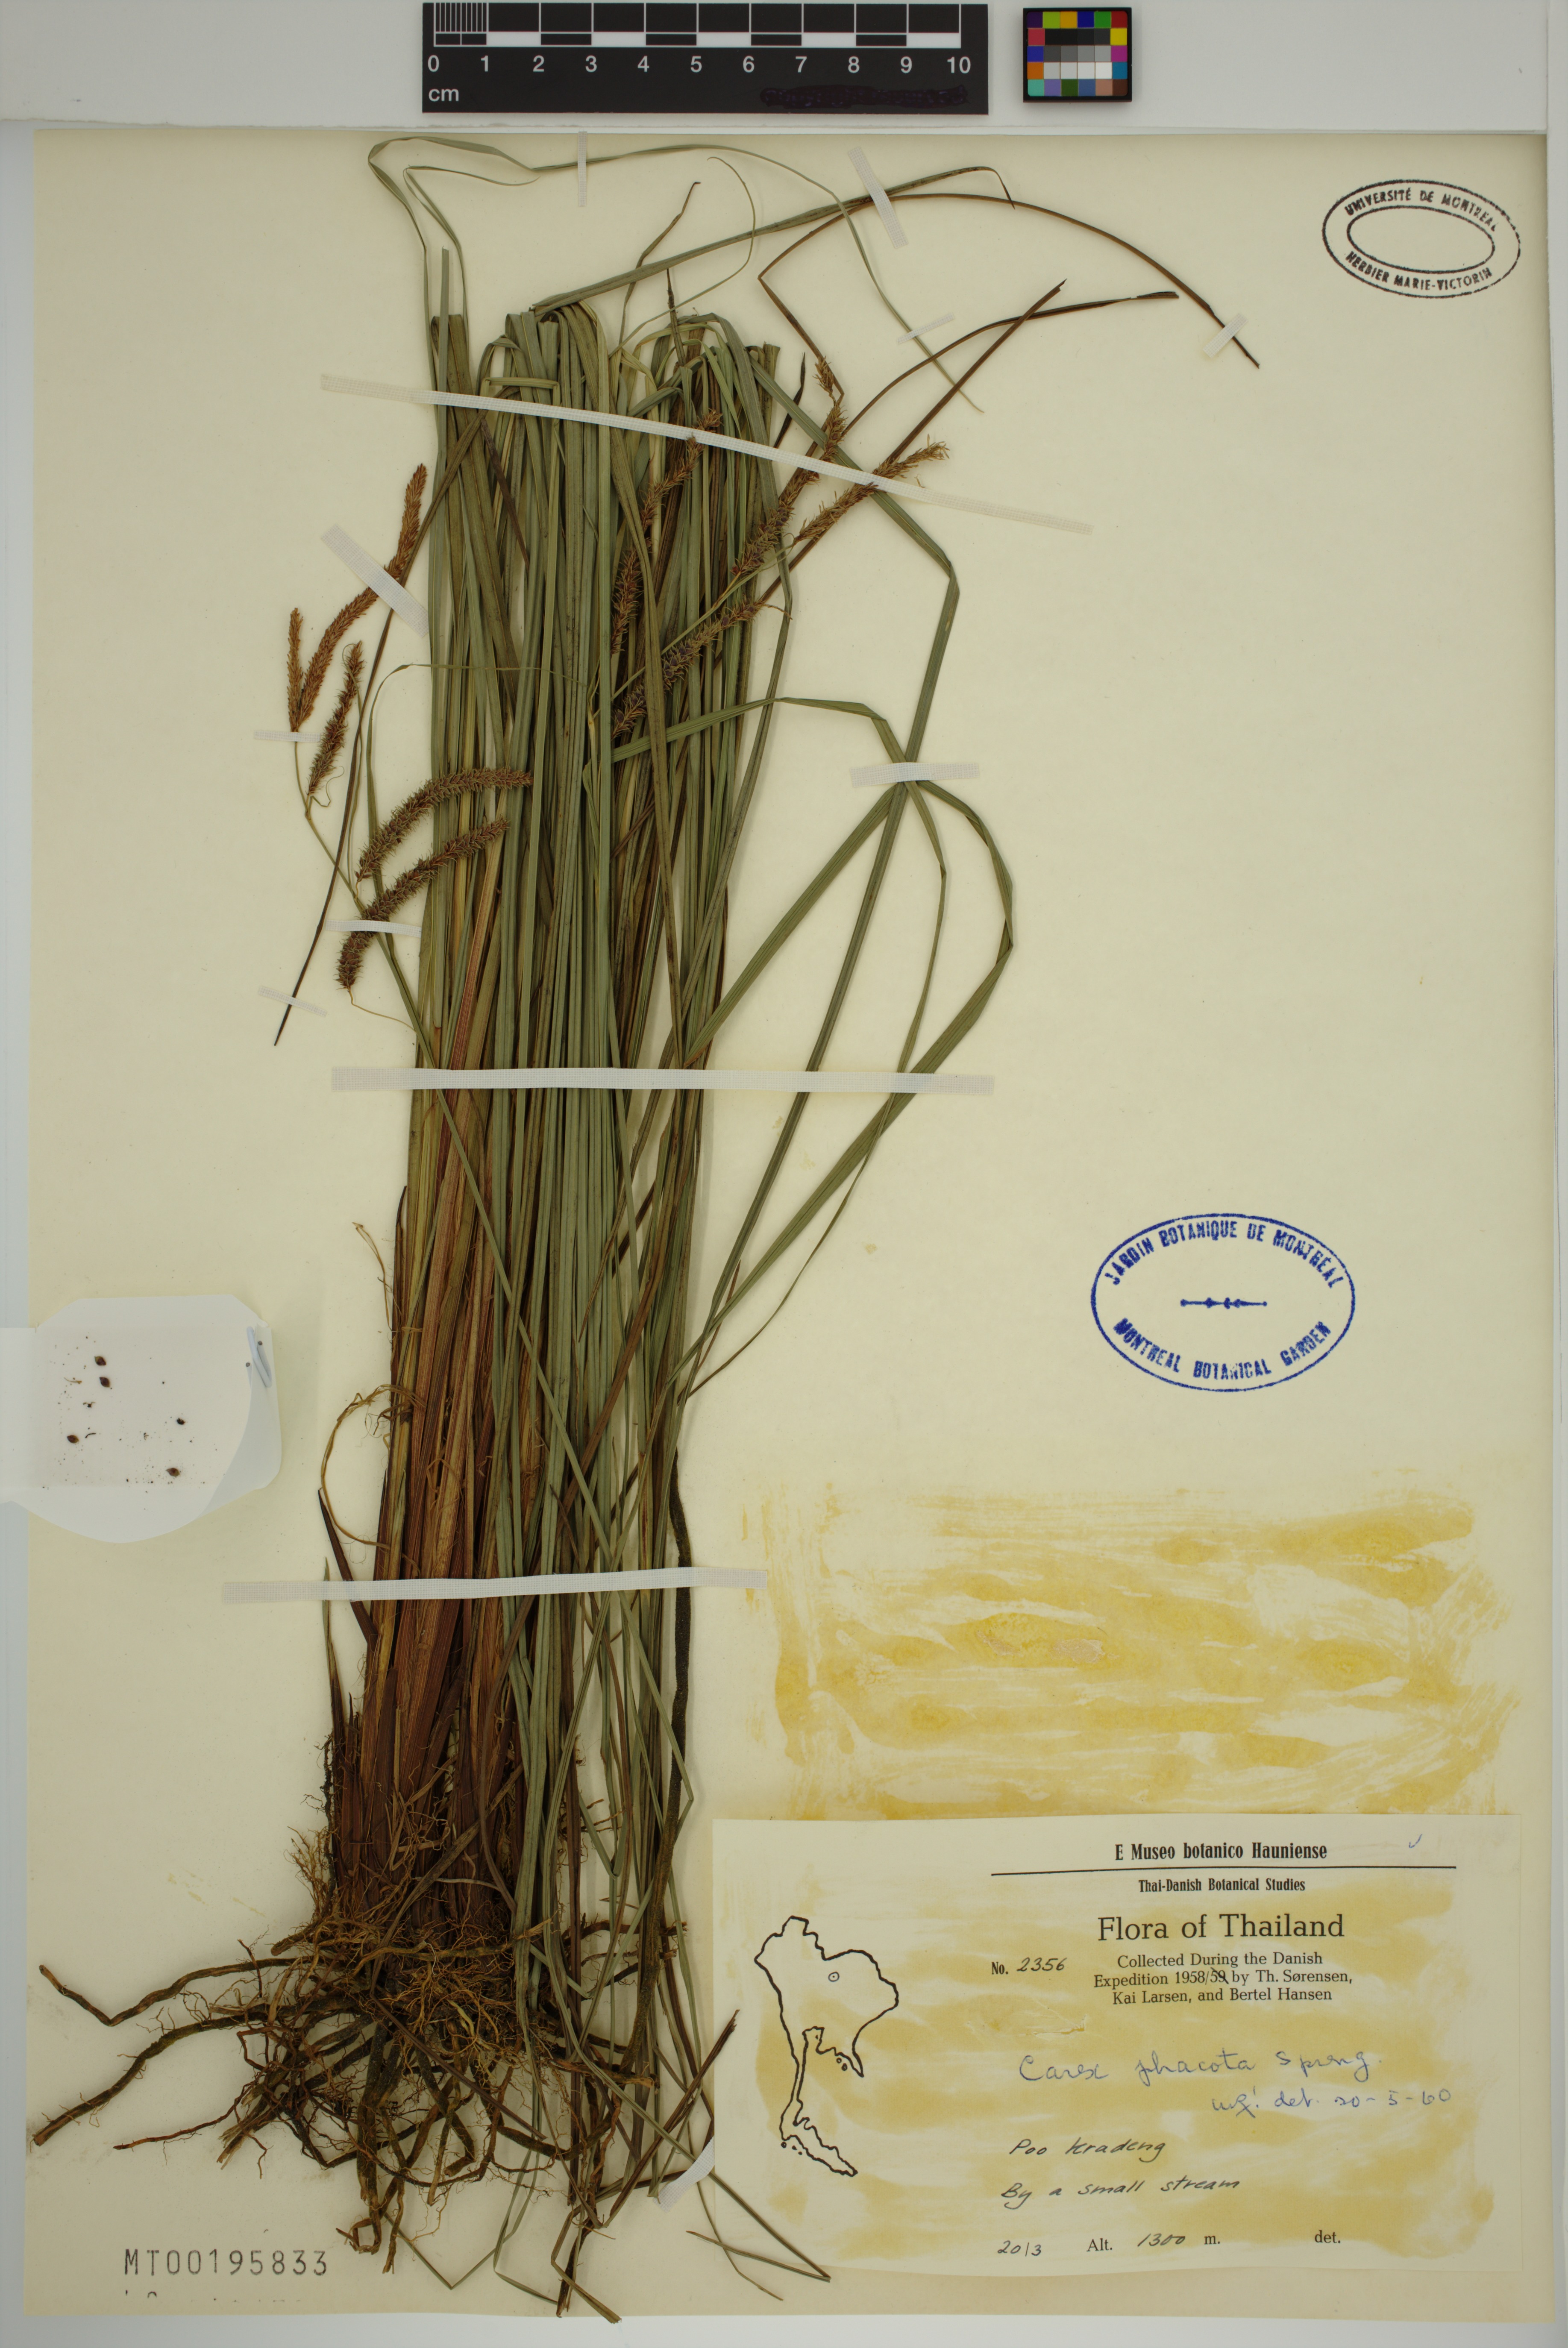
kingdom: Plantae
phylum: Tracheophyta
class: Liliopsida
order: Poales
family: Cyperaceae
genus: Carex
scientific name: Carex phacota
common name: Lakeshore sedge
